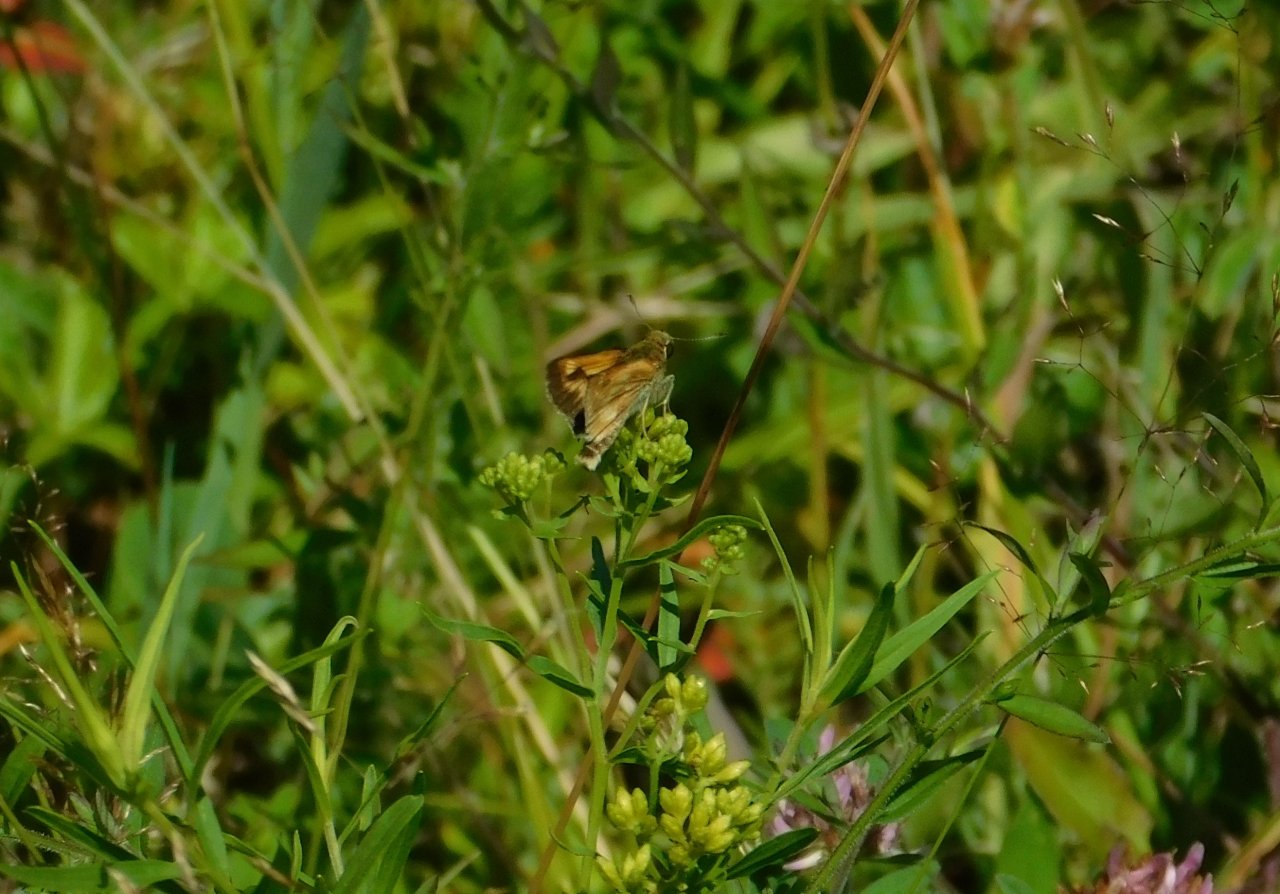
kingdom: Animalia
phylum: Arthropoda
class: Insecta
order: Lepidoptera
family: Hesperiidae
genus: Polites
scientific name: Polites
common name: Long Dash Skipper
